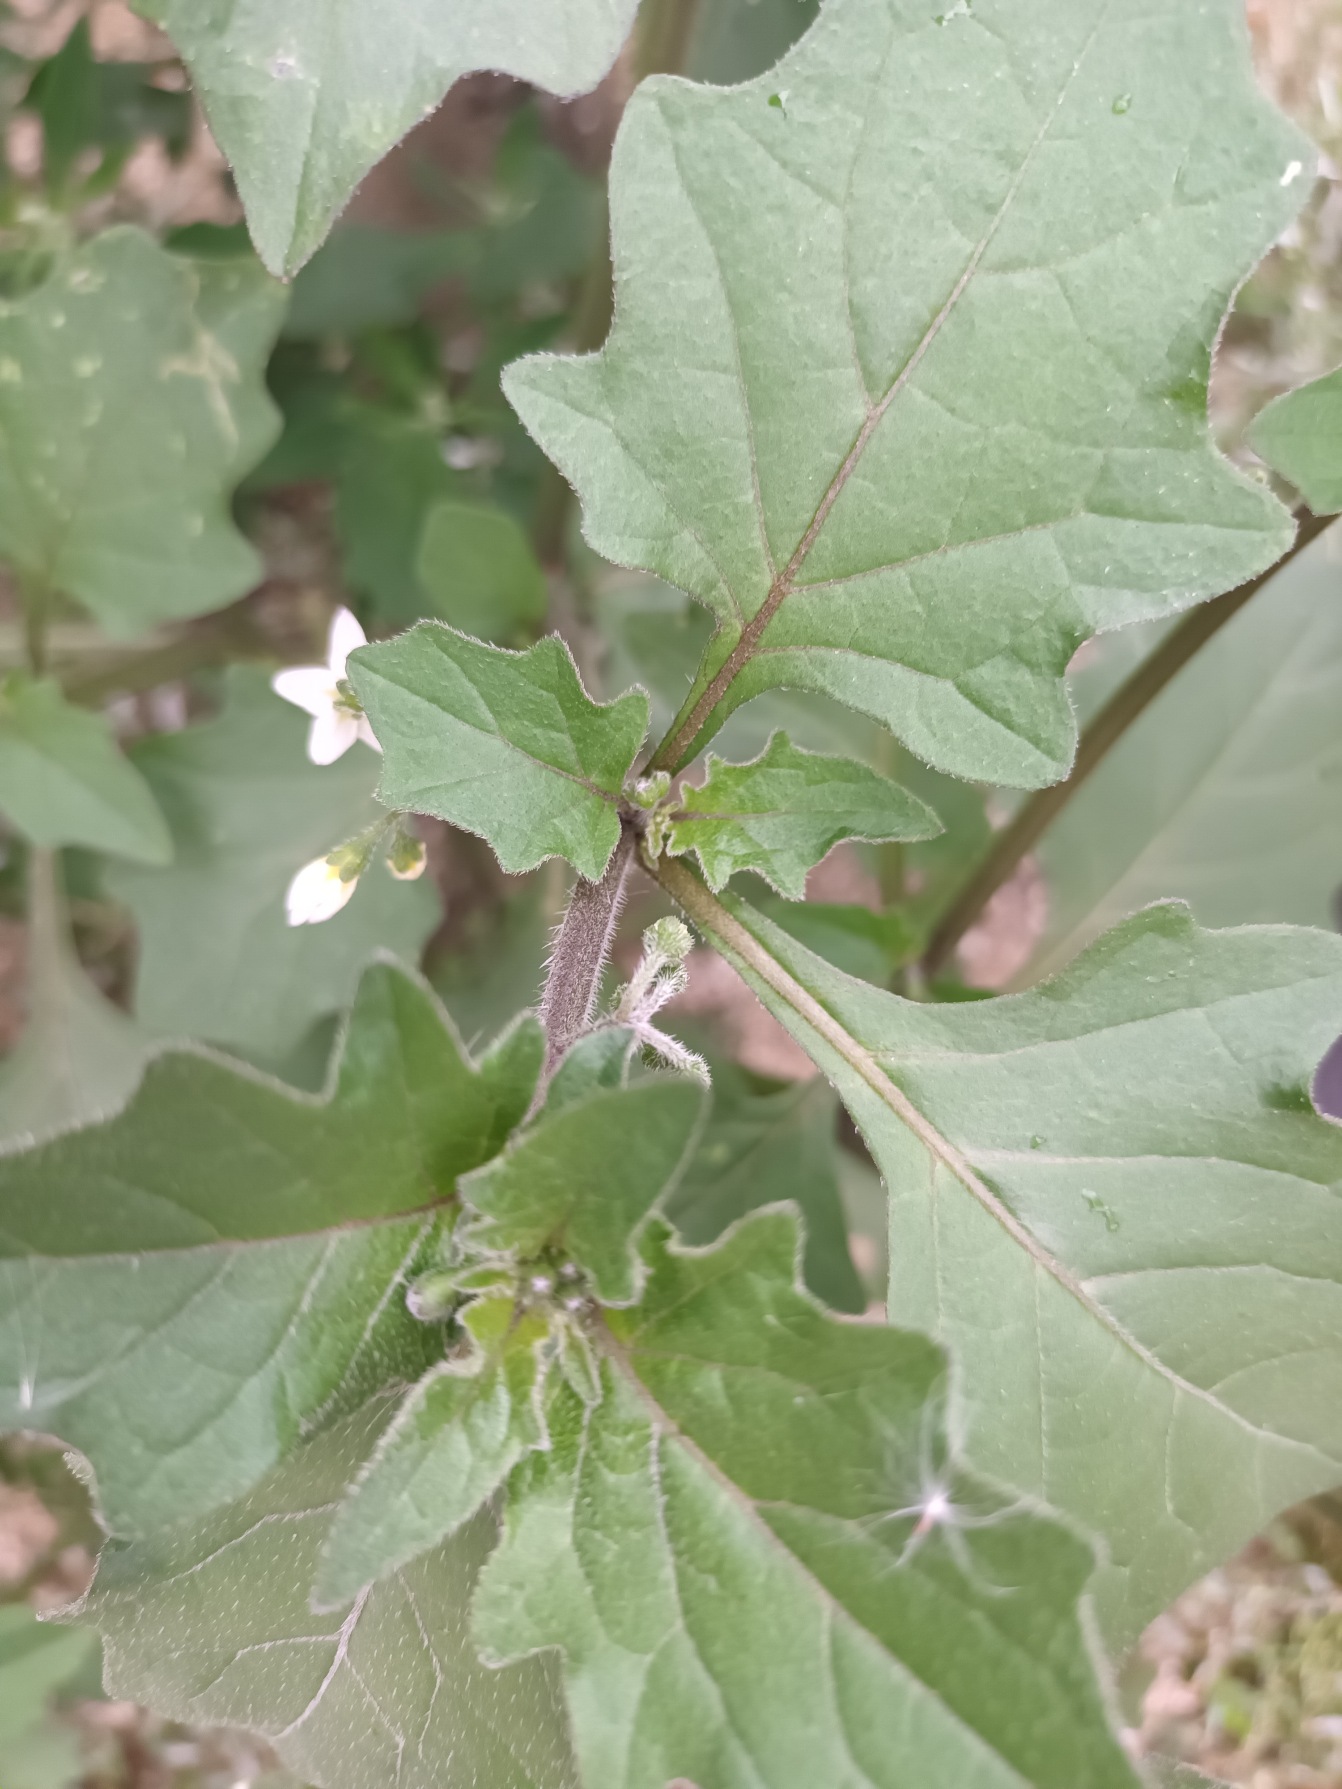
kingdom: Plantae
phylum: Tracheophyta
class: Magnoliopsida
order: Solanales
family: Solanaceae
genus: Solanum
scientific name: Solanum decipiens
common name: Kirtel-natskygge
